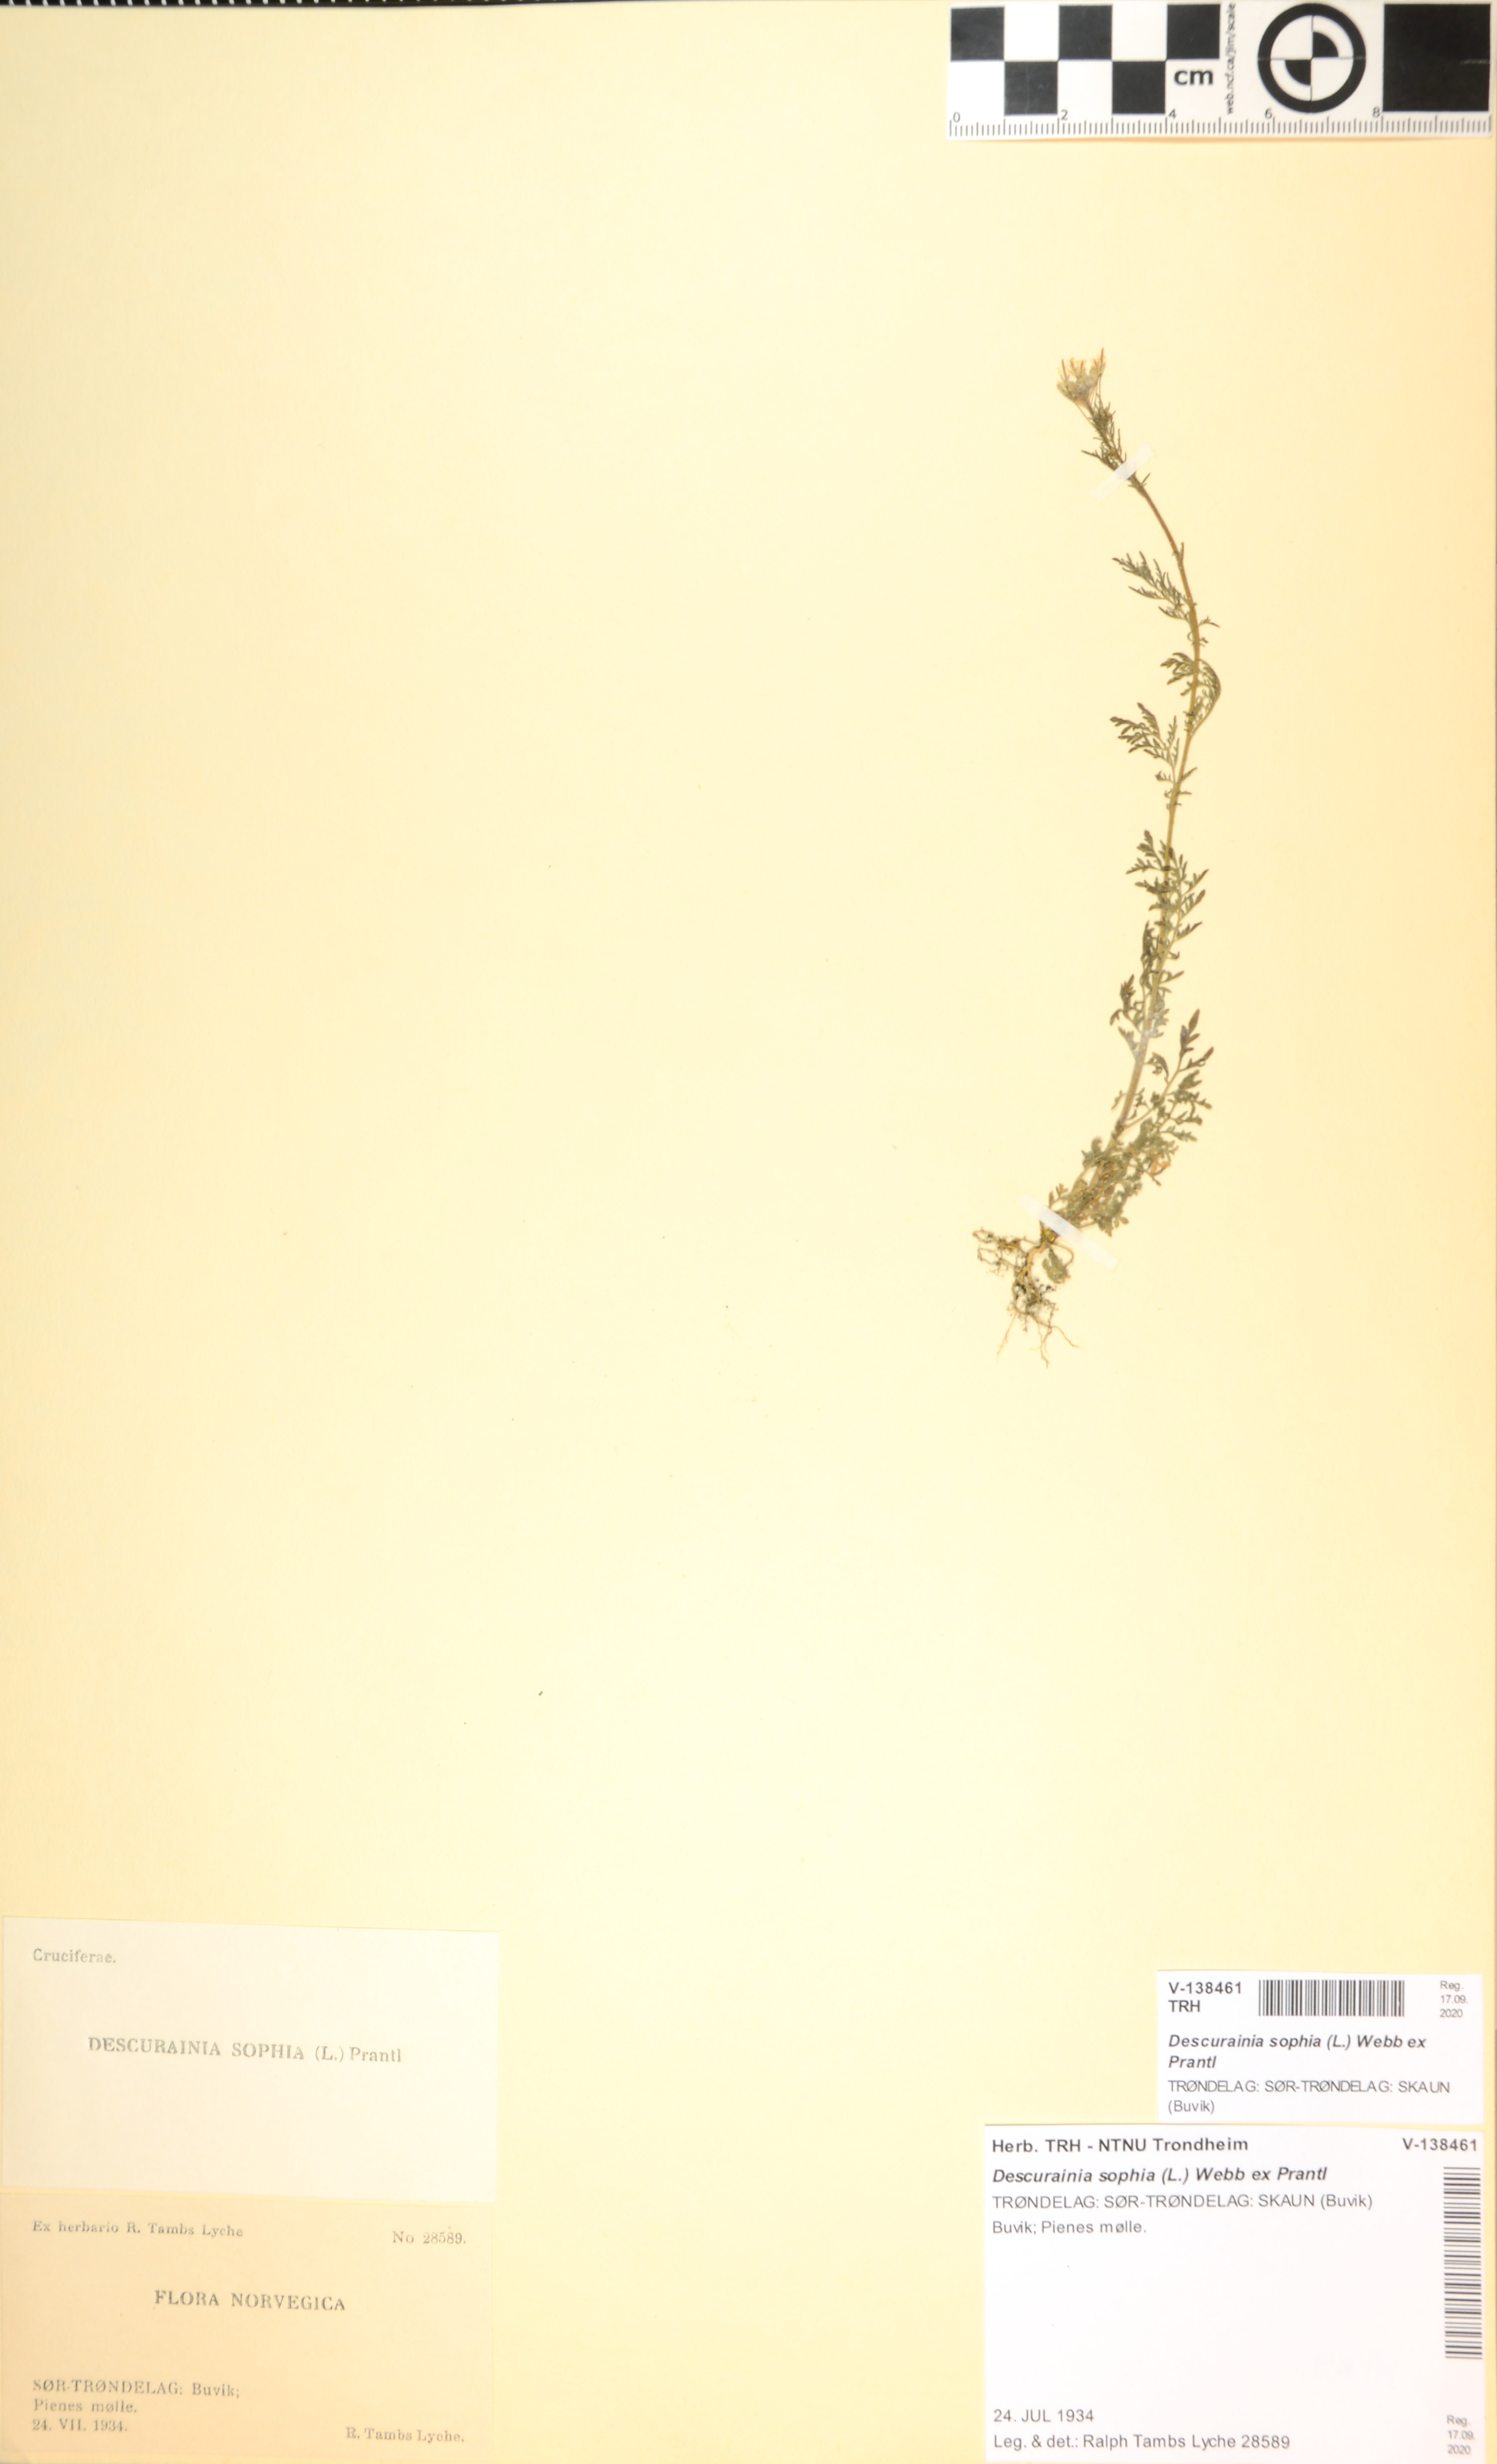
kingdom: Plantae
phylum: Tracheophyta
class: Magnoliopsida
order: Brassicales
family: Brassicaceae
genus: Descurainia
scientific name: Descurainia sophia
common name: Flixweed
